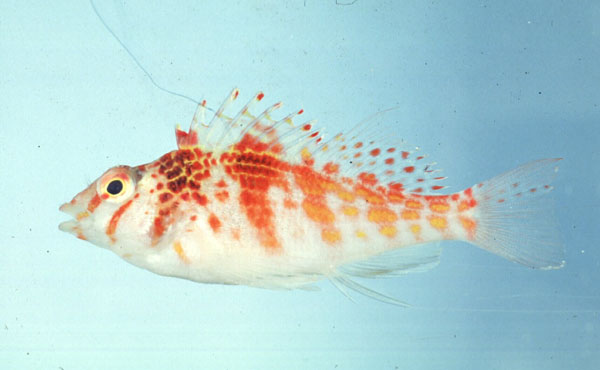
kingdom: Animalia
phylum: Chordata
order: Perciformes
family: Cirrhitidae
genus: Cirrhitichthys
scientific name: Cirrhitichthys falco
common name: Coral hawkfish
